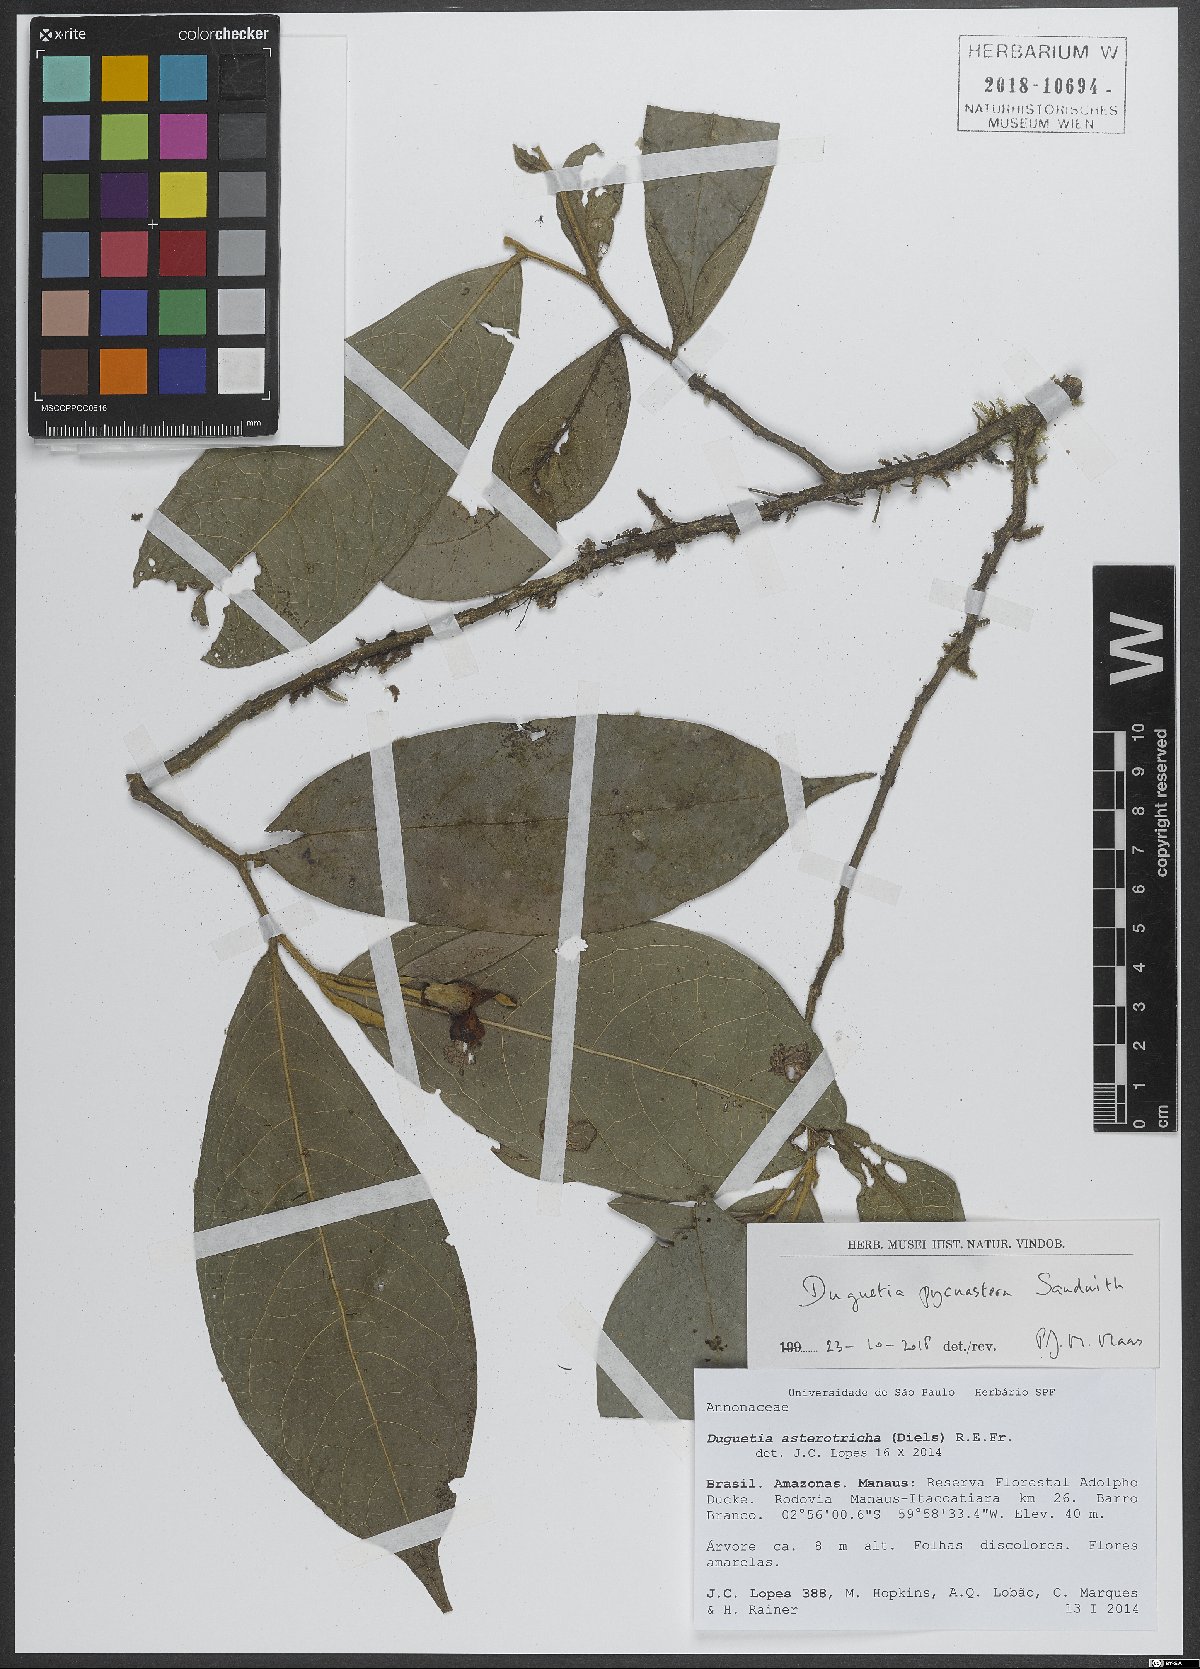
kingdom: Plantae
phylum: Tracheophyta
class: Magnoliopsida
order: Magnoliales
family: Annonaceae
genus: Duguetia
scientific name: Duguetia pycnastera
